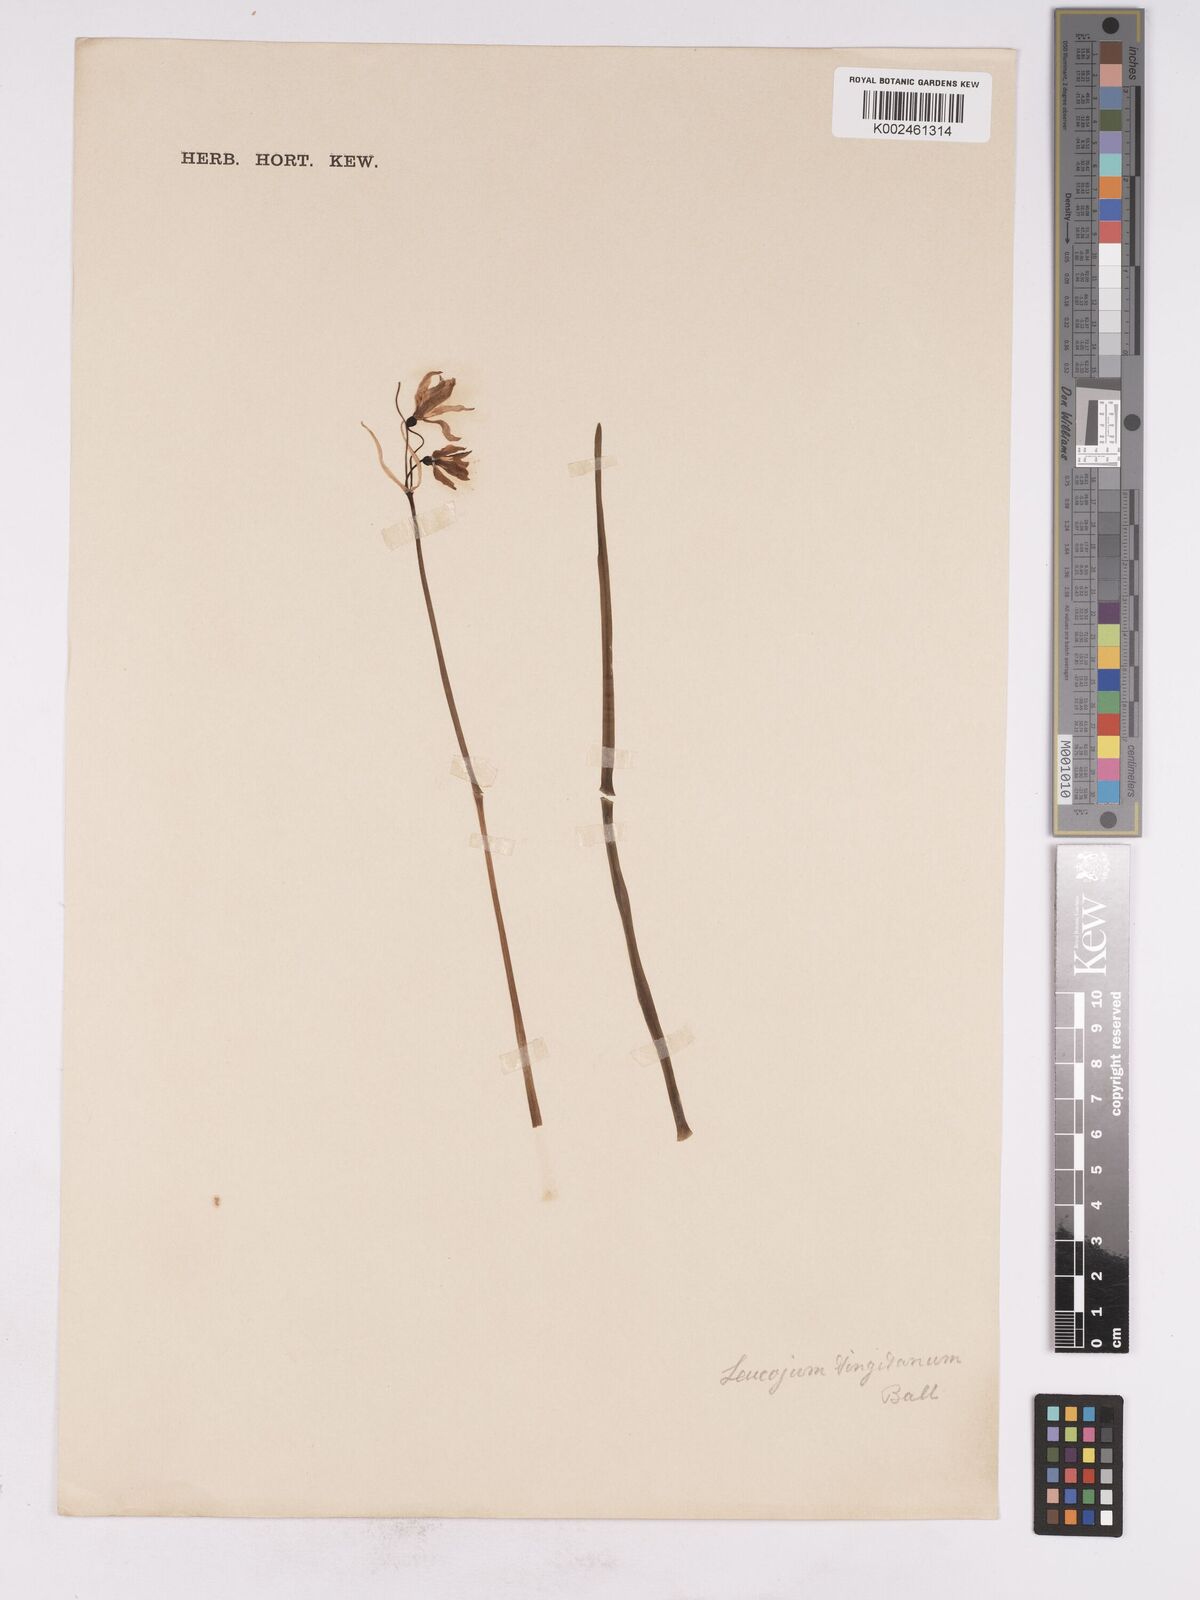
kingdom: Plantae
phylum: Tracheophyta
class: Liliopsida
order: Asparagales
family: Amaryllidaceae
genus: Acis
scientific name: Acis tingitana
